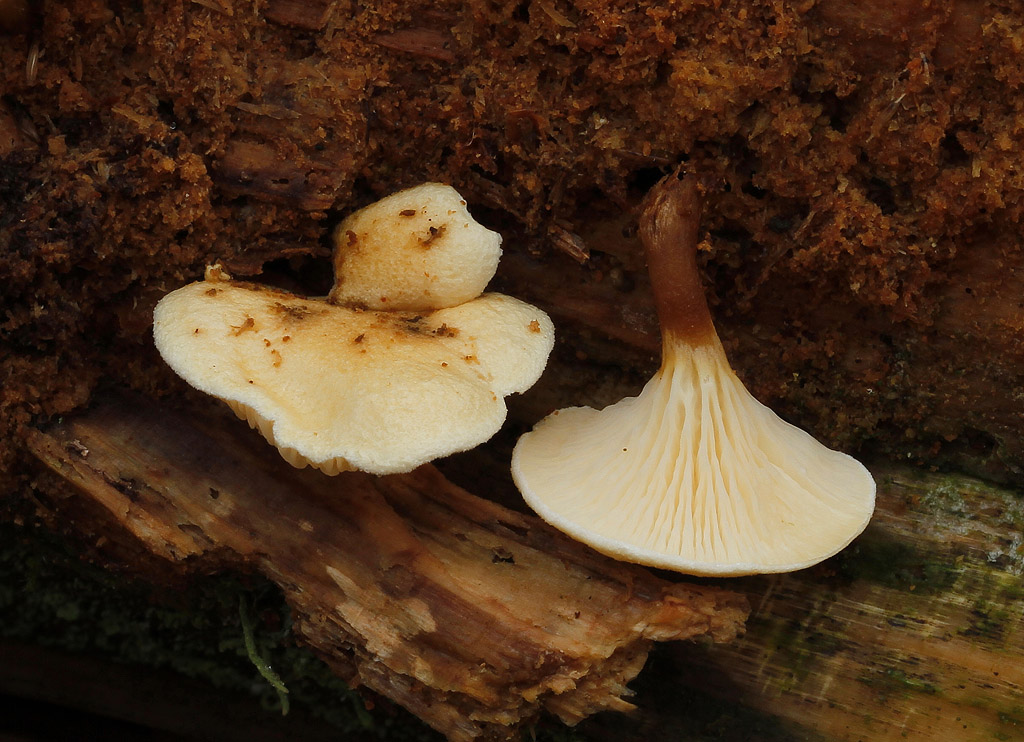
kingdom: Fungi
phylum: Basidiomycota
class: Agaricomycetes
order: Boletales
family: Hygrophoropsidaceae
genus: Hygrophoropsis
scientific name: Hygrophoropsis pallida
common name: bleg orangekantarel
